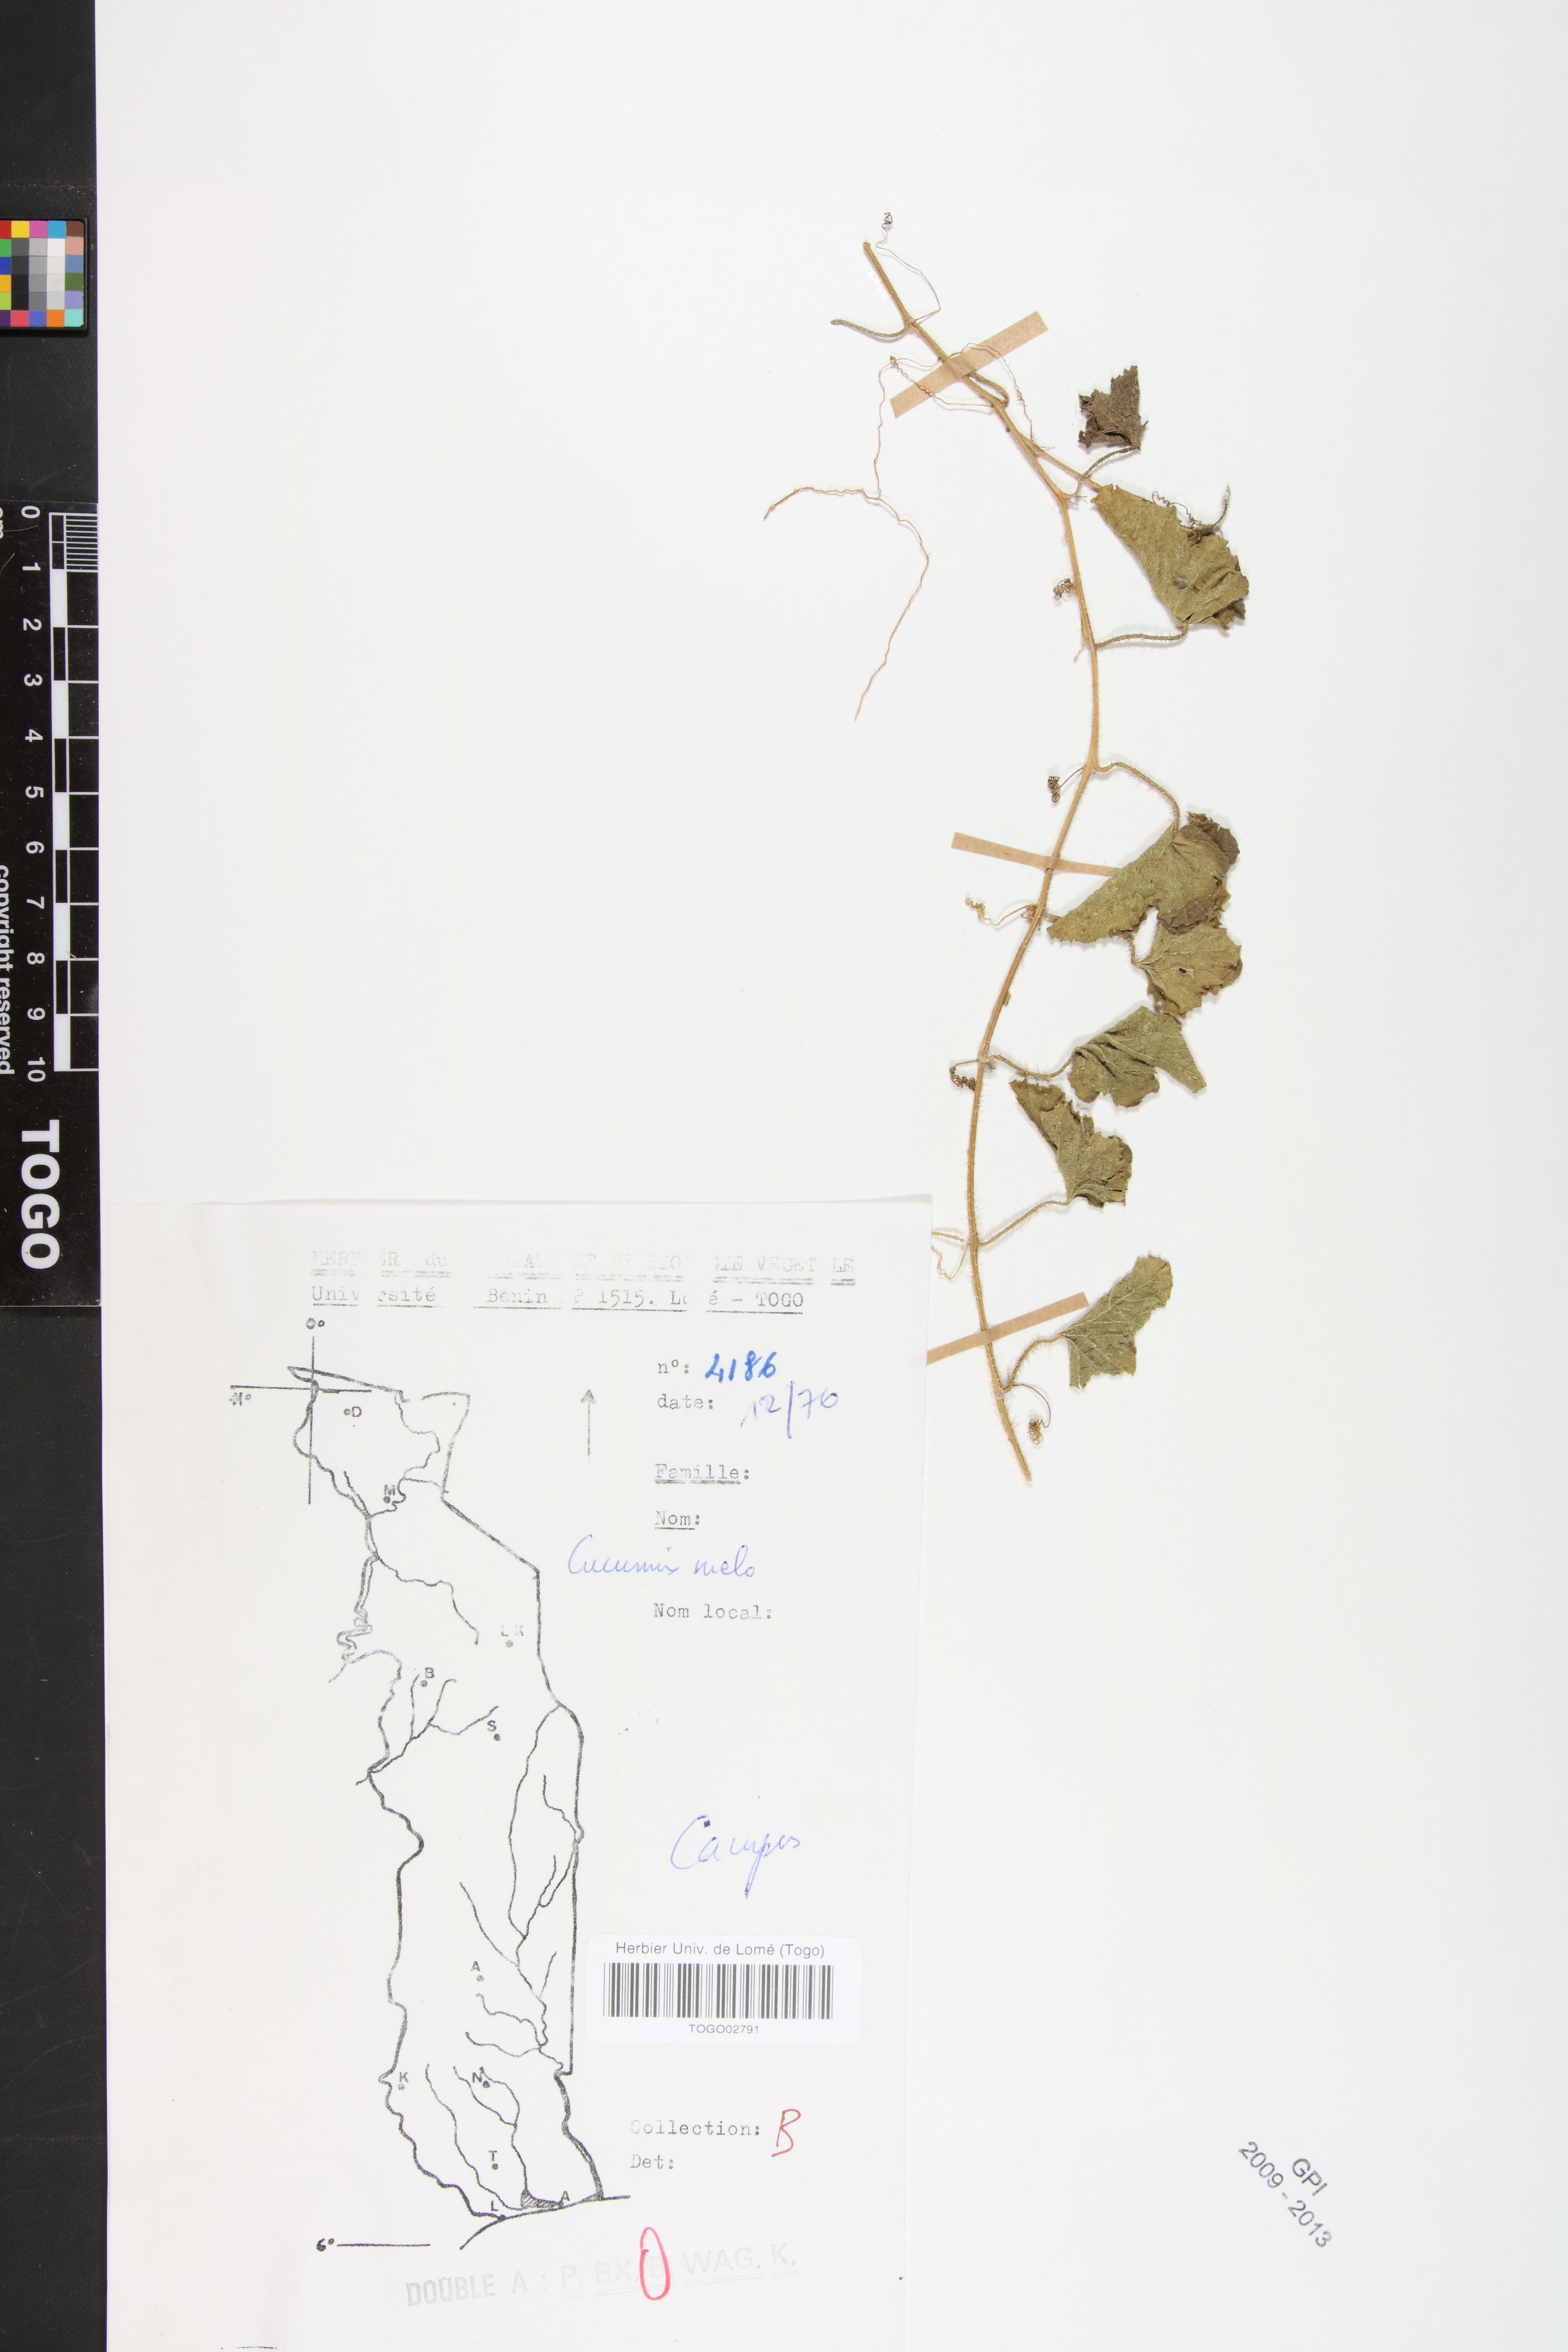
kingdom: Plantae
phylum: Tracheophyta
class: Magnoliopsida
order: Cucurbitales
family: Cucurbitaceae
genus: Cucumis
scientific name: Cucumis melo
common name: Melon
